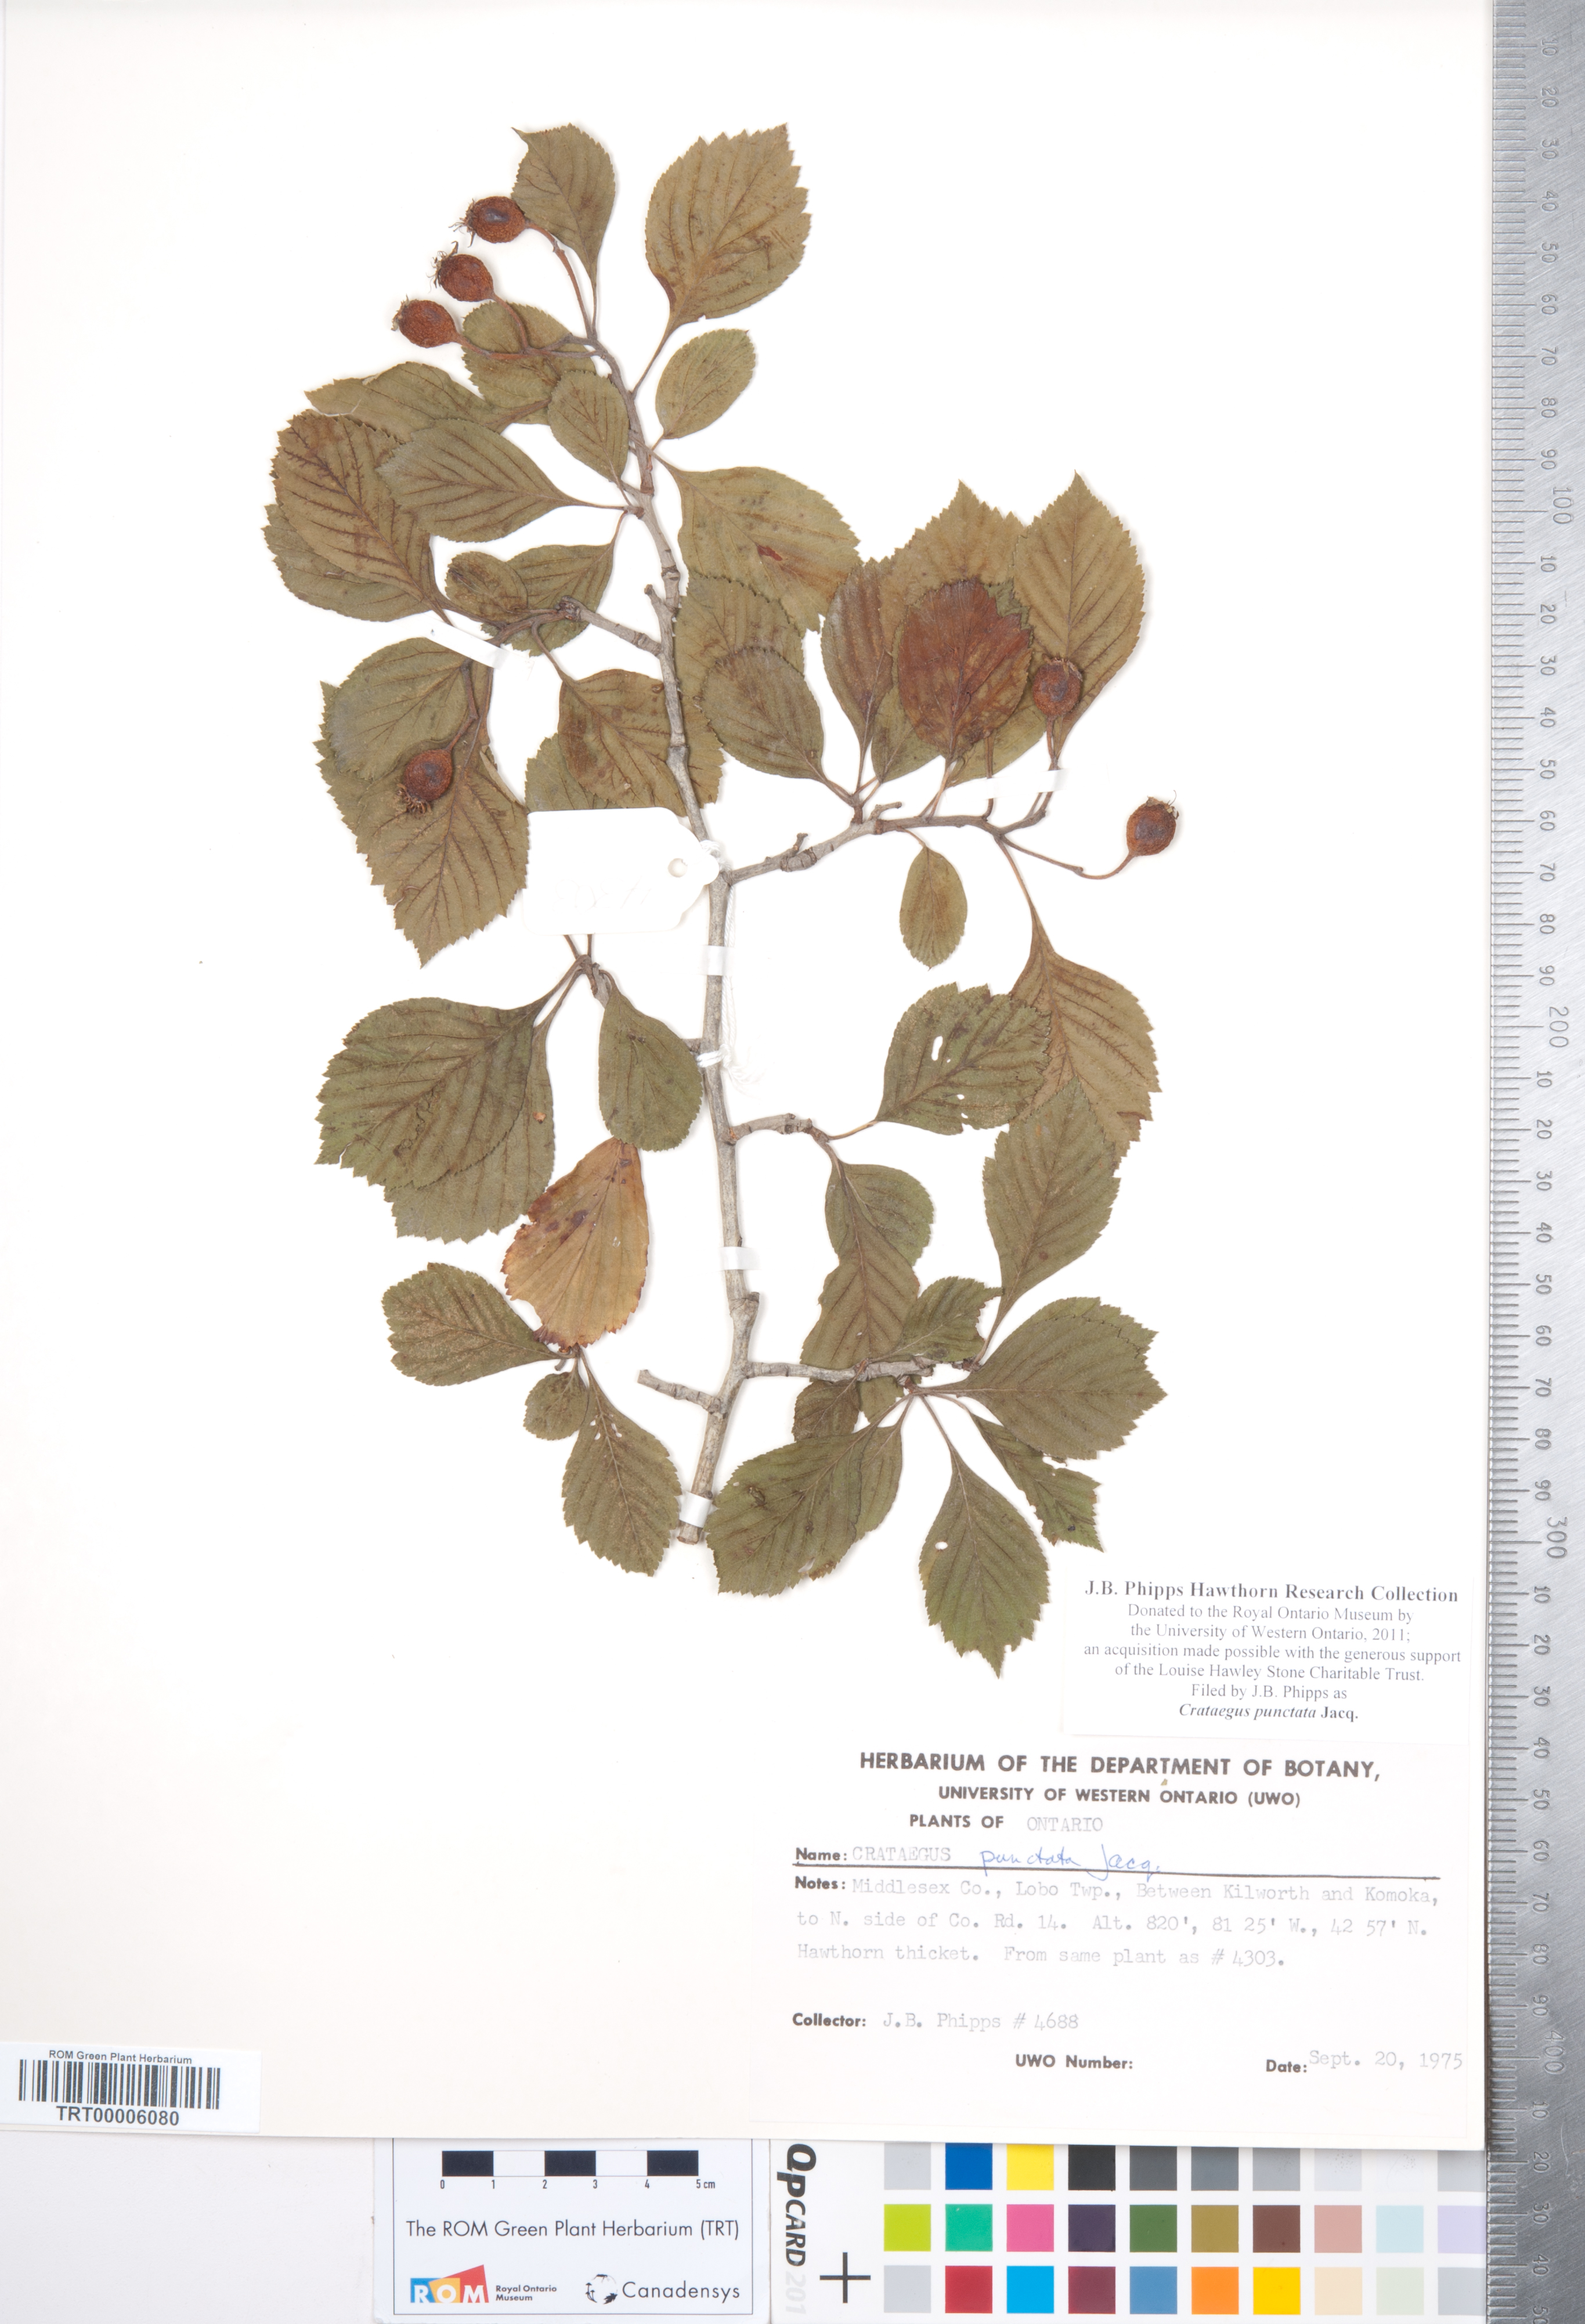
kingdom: Plantae
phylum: Tracheophyta
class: Magnoliopsida
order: Rosales
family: Rosaceae
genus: Crataegus
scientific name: Crataegus punctata
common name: Dotted hawthorn
